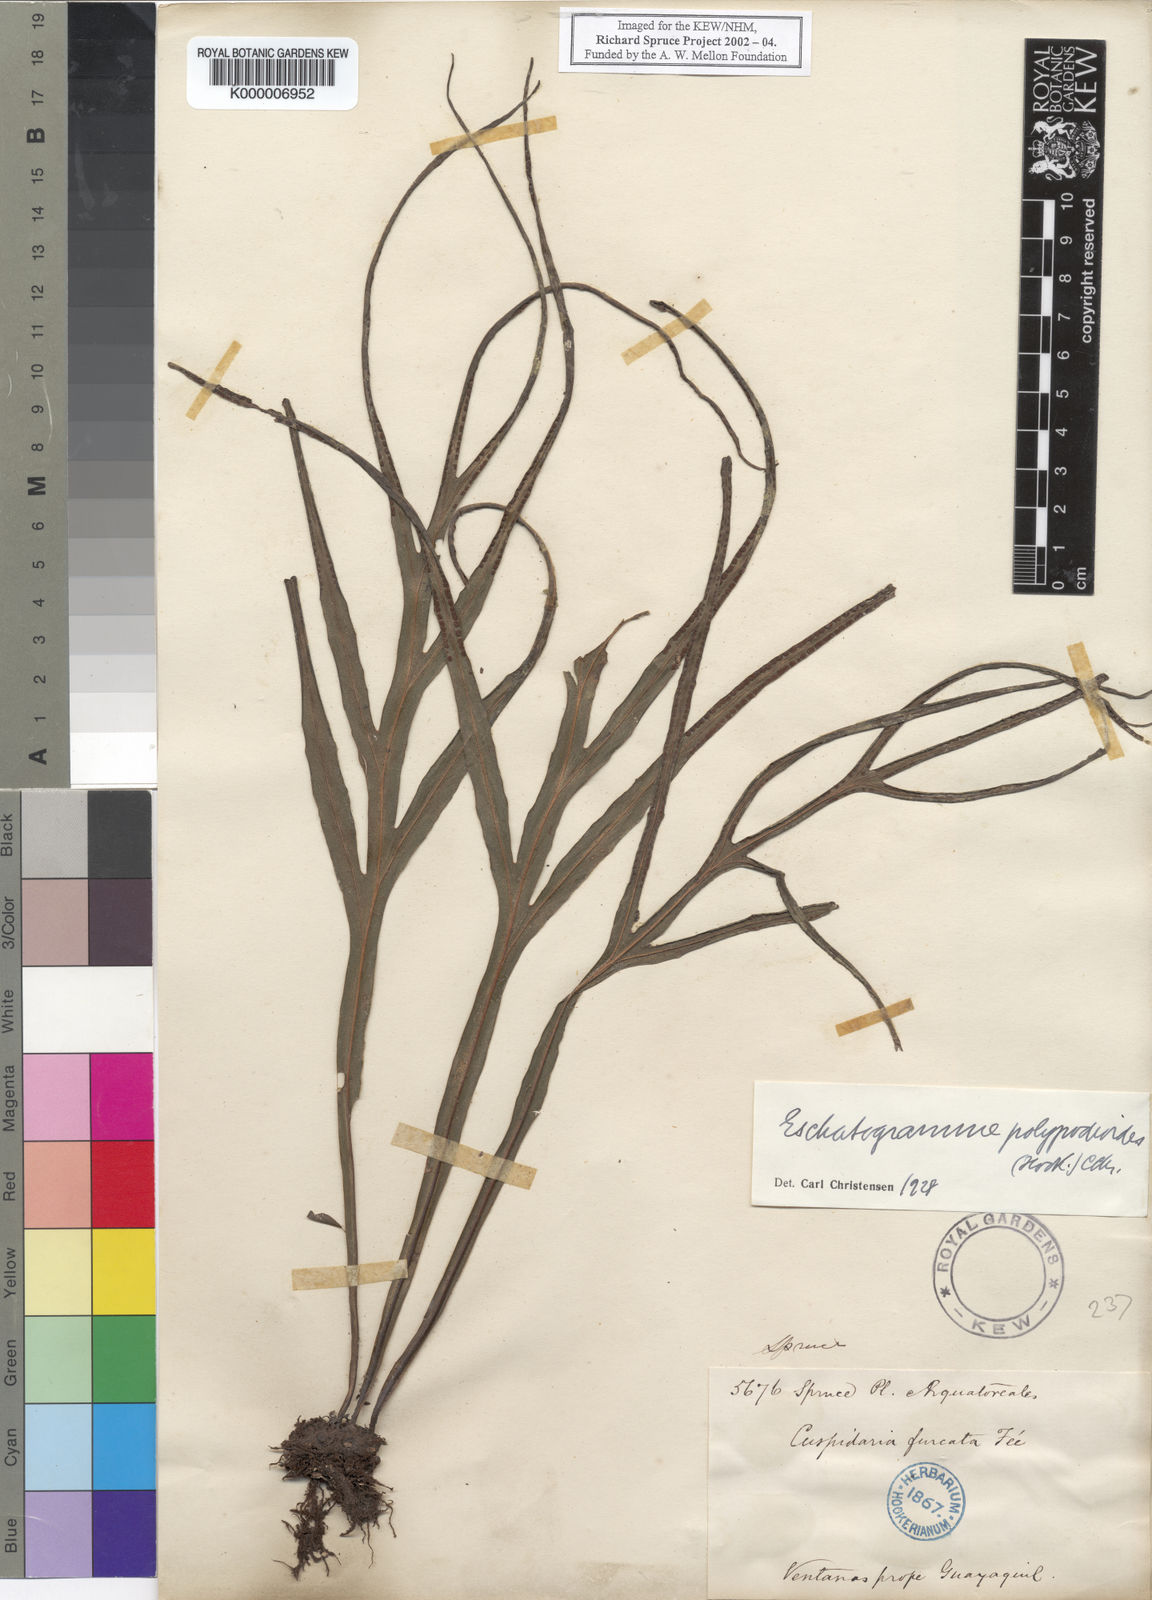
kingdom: Plantae
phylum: Tracheophyta
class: Polypodiopsida
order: Polypodiales
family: Polypodiaceae
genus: Pleopeltis
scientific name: Pleopeltis hookeri
